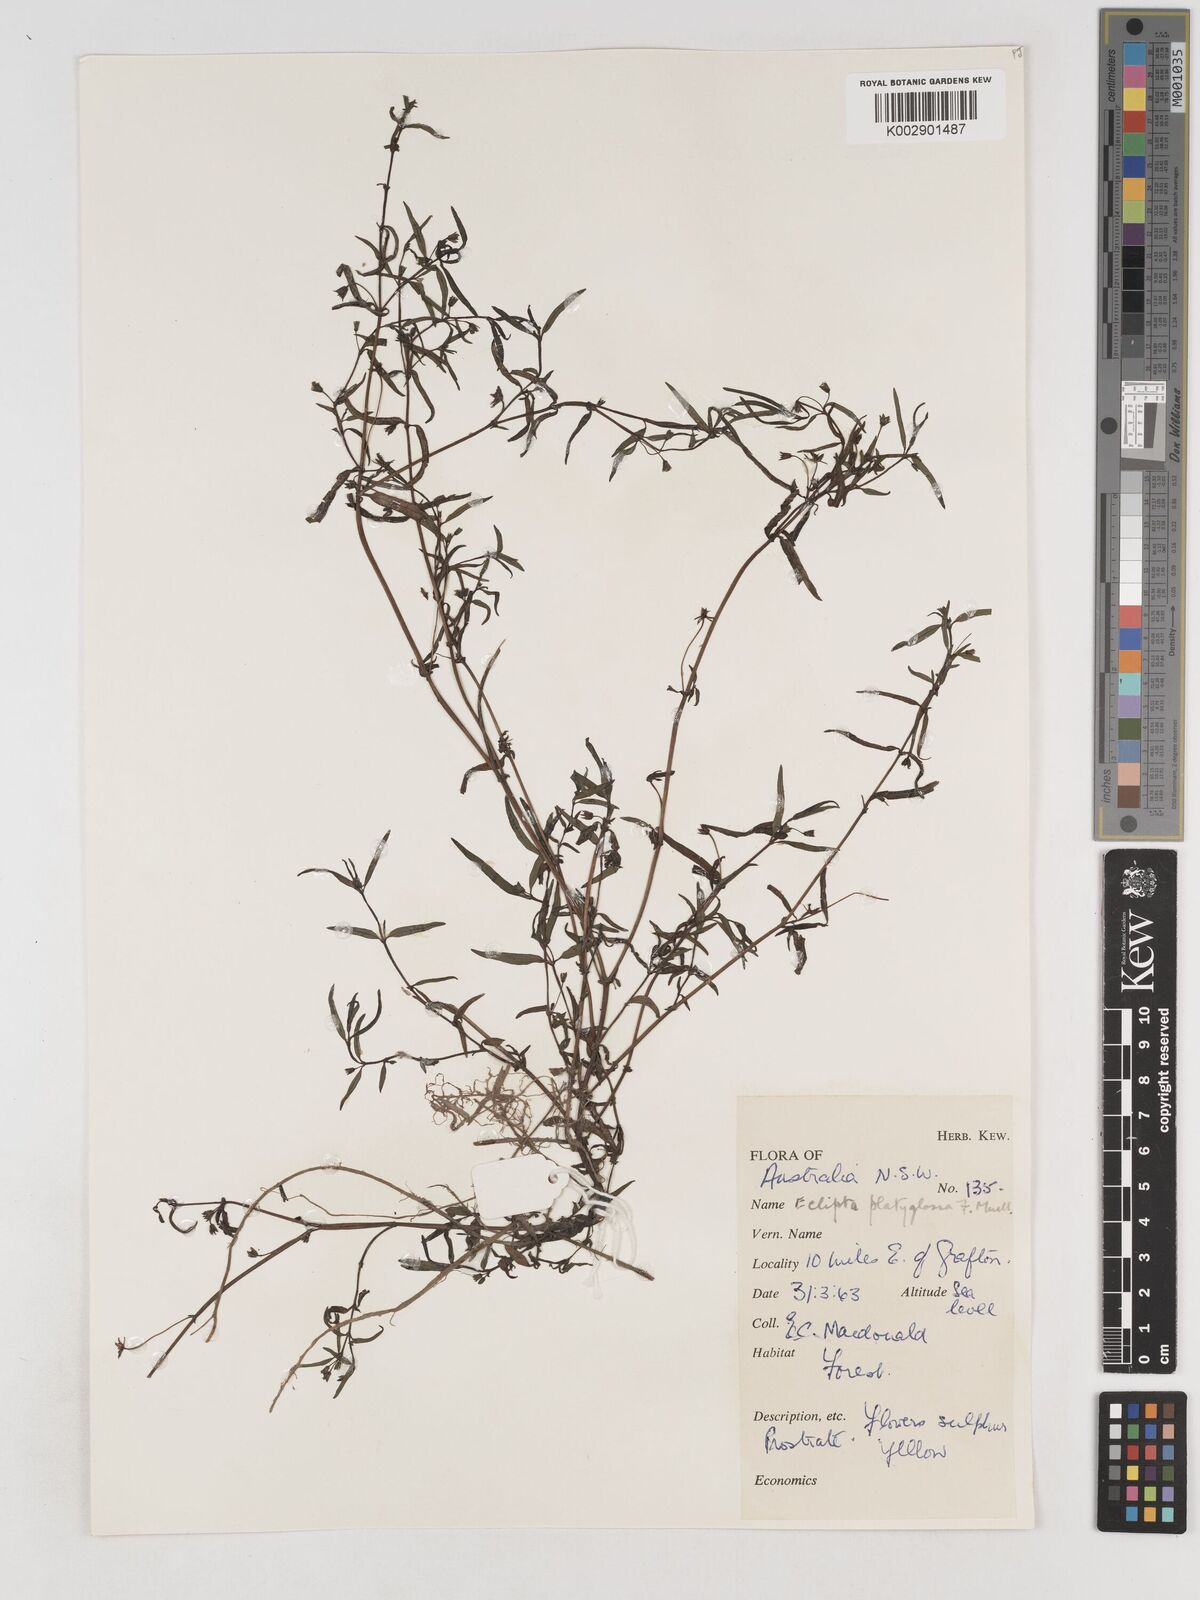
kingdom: Plantae
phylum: Tracheophyta
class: Magnoliopsida
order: Asterales
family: Asteraceae
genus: Eclipta
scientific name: Eclipta platyglossa
